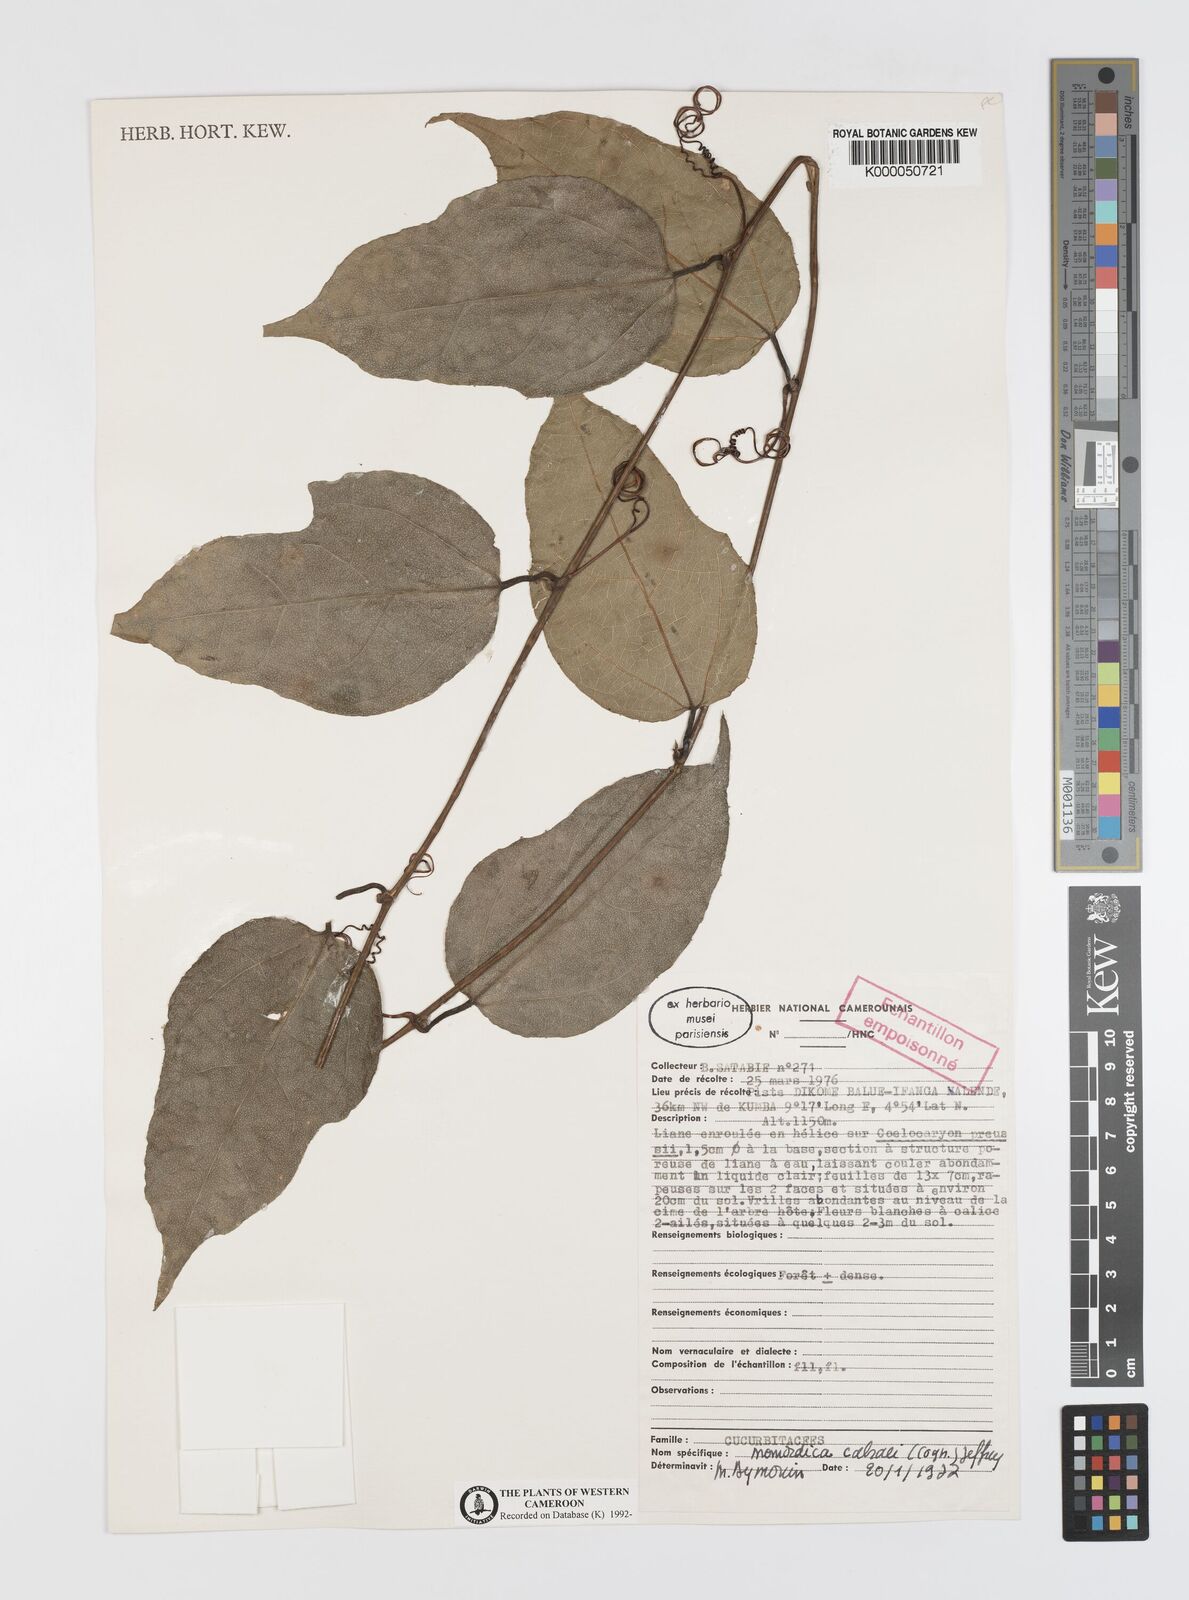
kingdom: Plantae
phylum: Tracheophyta
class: Magnoliopsida
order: Cucurbitales
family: Cucurbitaceae
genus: Momordica
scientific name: Momordica
